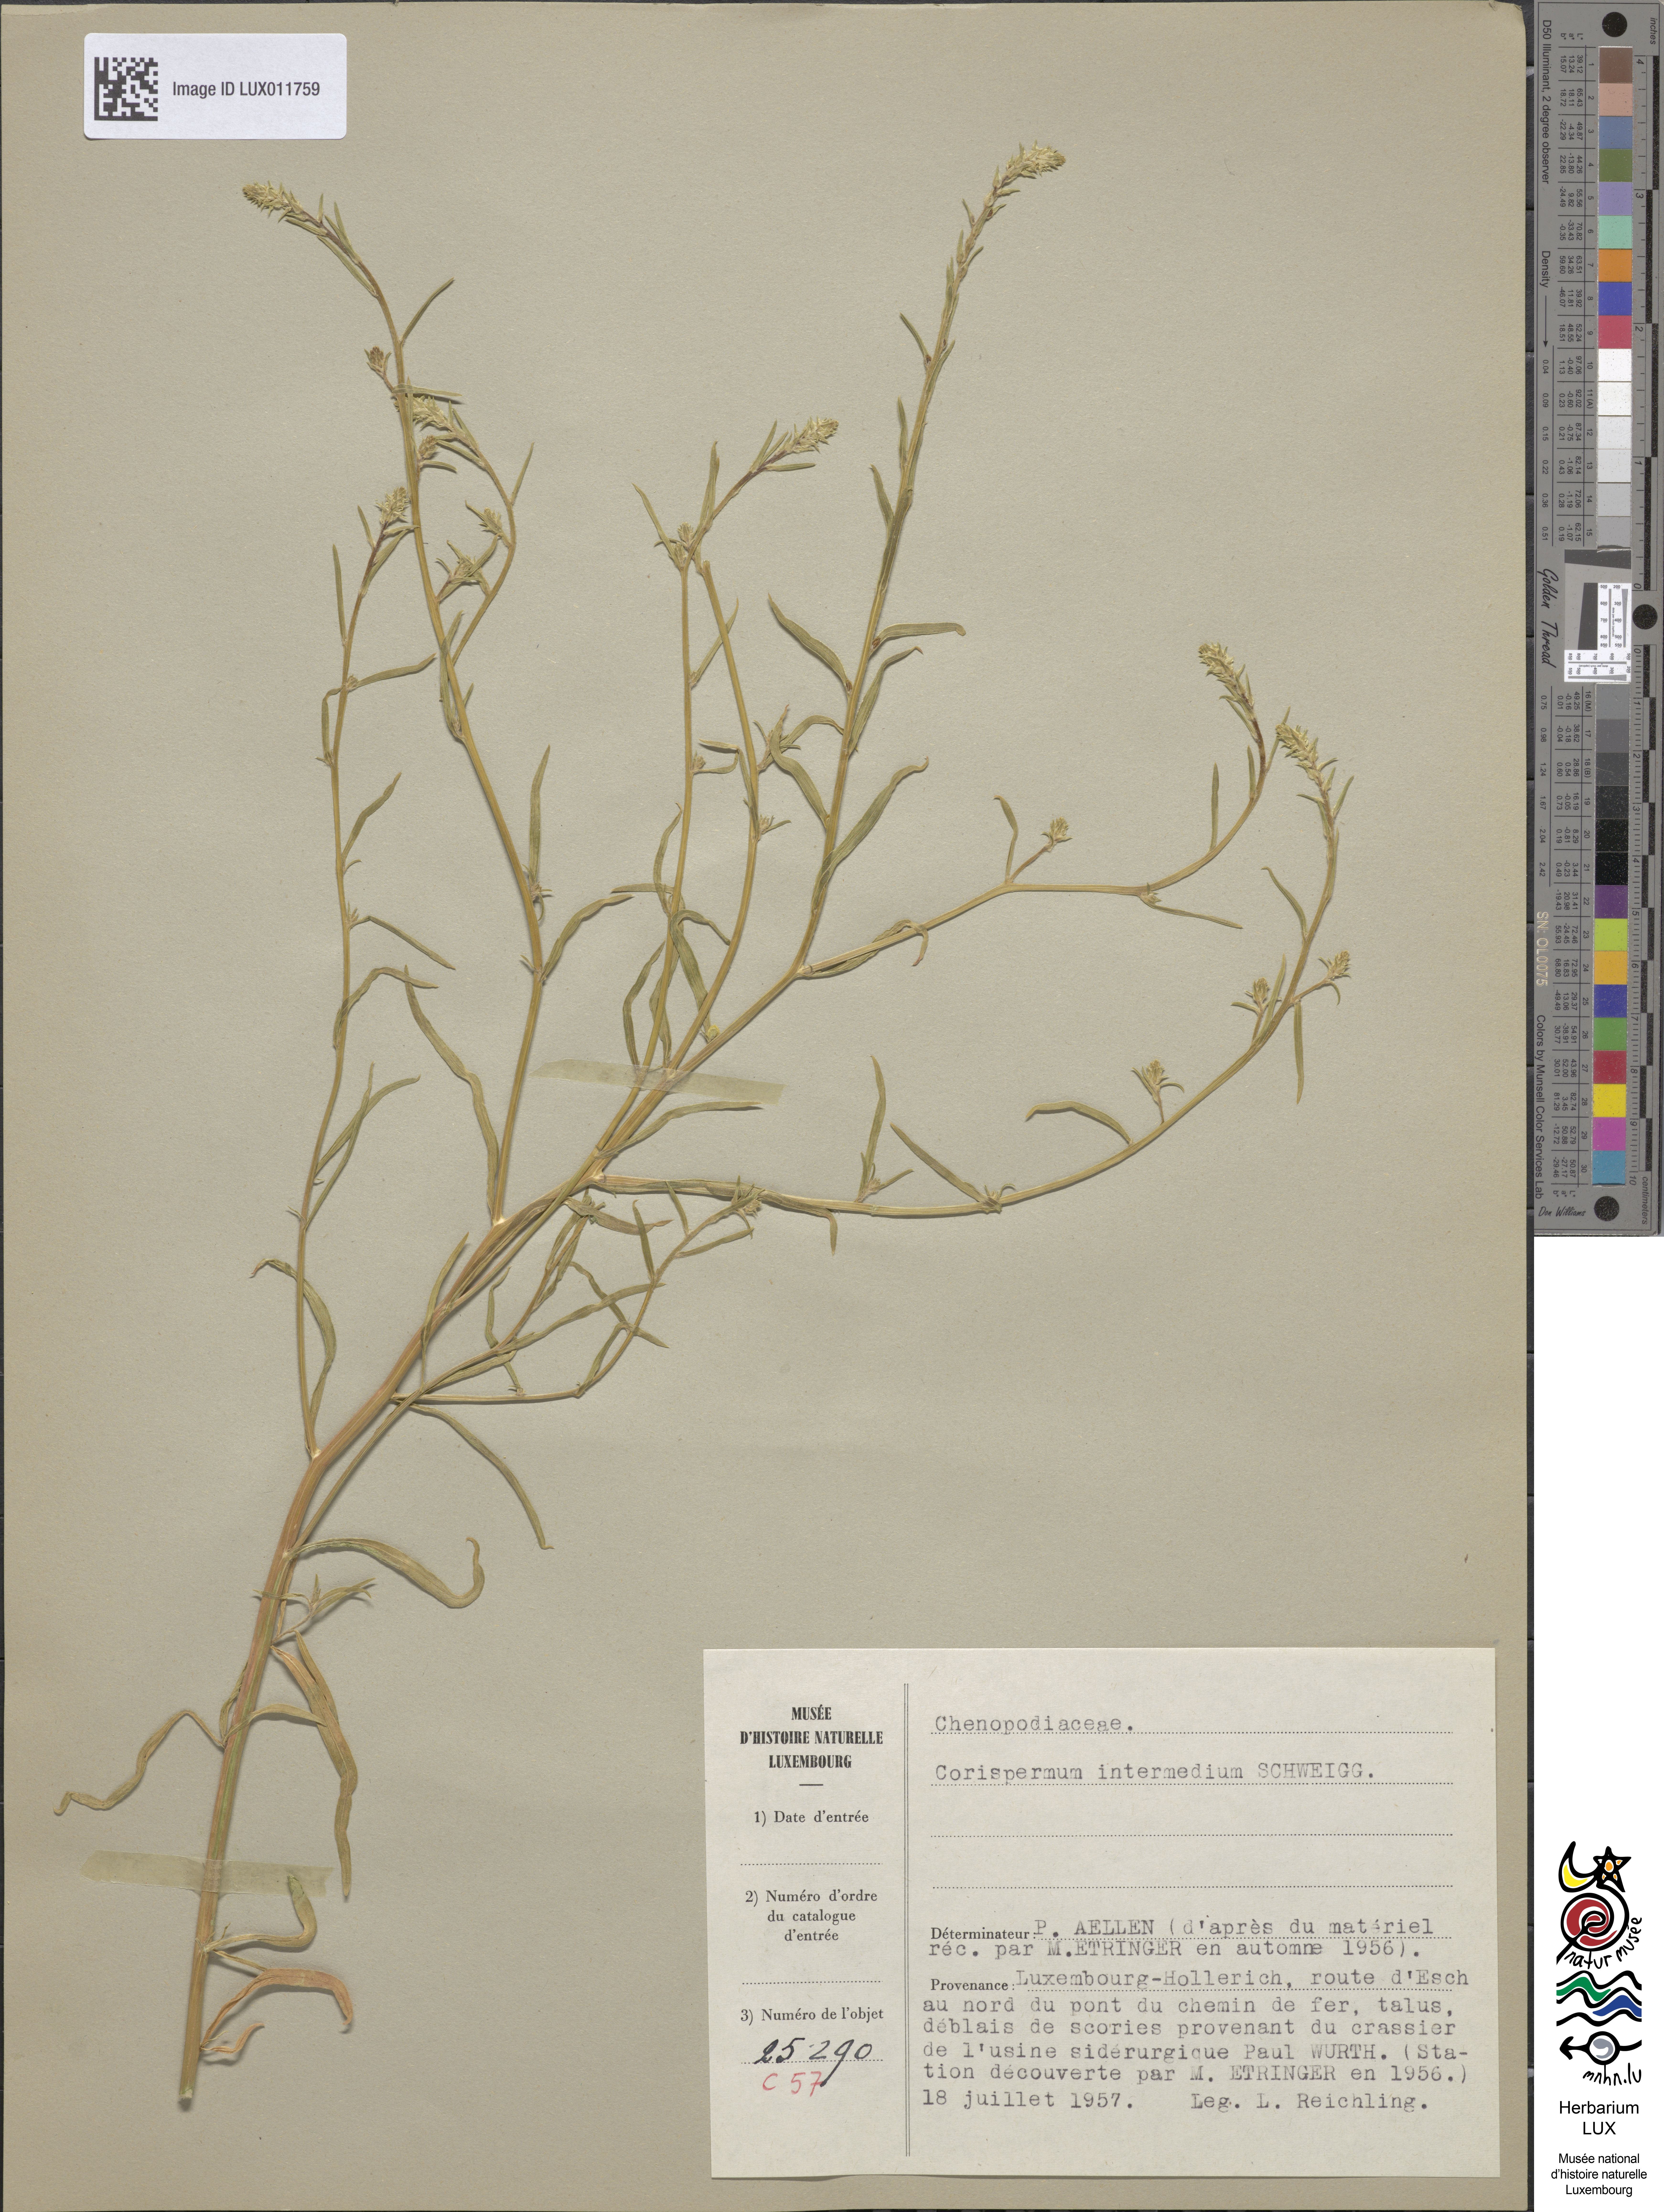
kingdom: Plantae
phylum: Tracheophyta
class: Magnoliopsida
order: Caryophyllales
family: Amaranthaceae
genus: Corispermum
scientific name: Corispermum intermedium
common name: Hyssop-leaved tickseed
